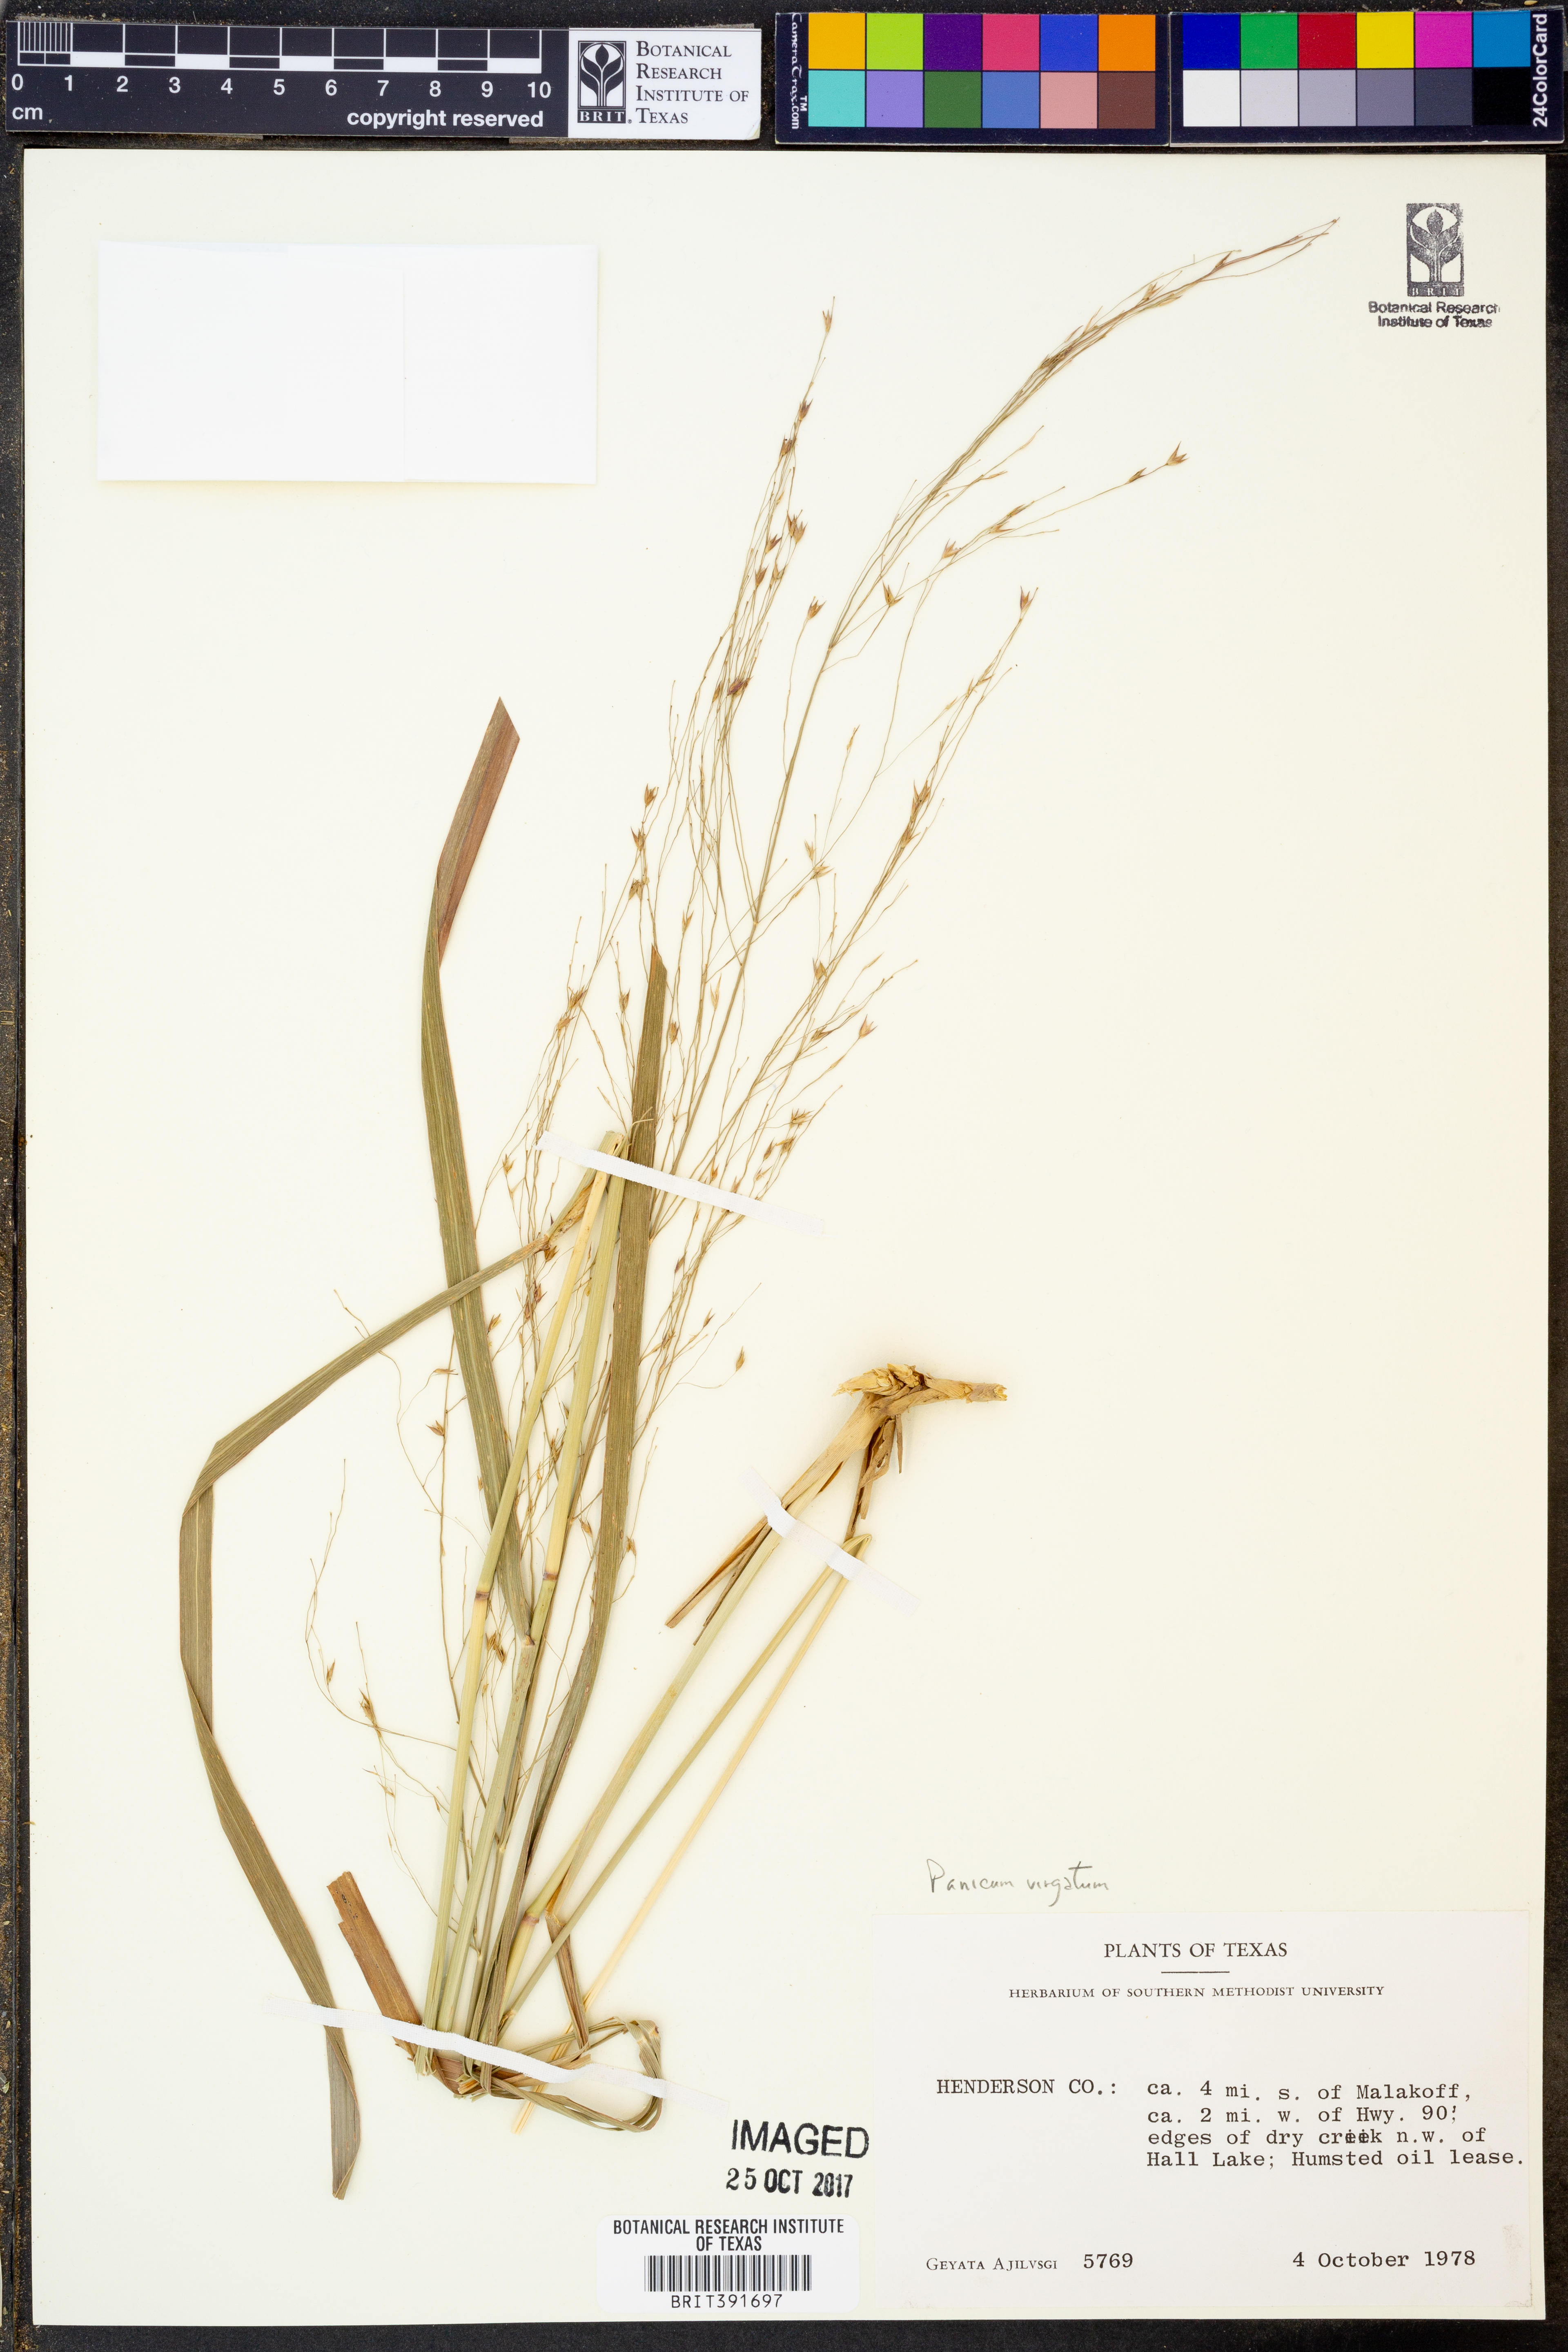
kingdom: Plantae
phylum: Tracheophyta
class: Liliopsida
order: Poales
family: Poaceae
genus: Panicum
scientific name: Panicum virgatum
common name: Switchgrass
